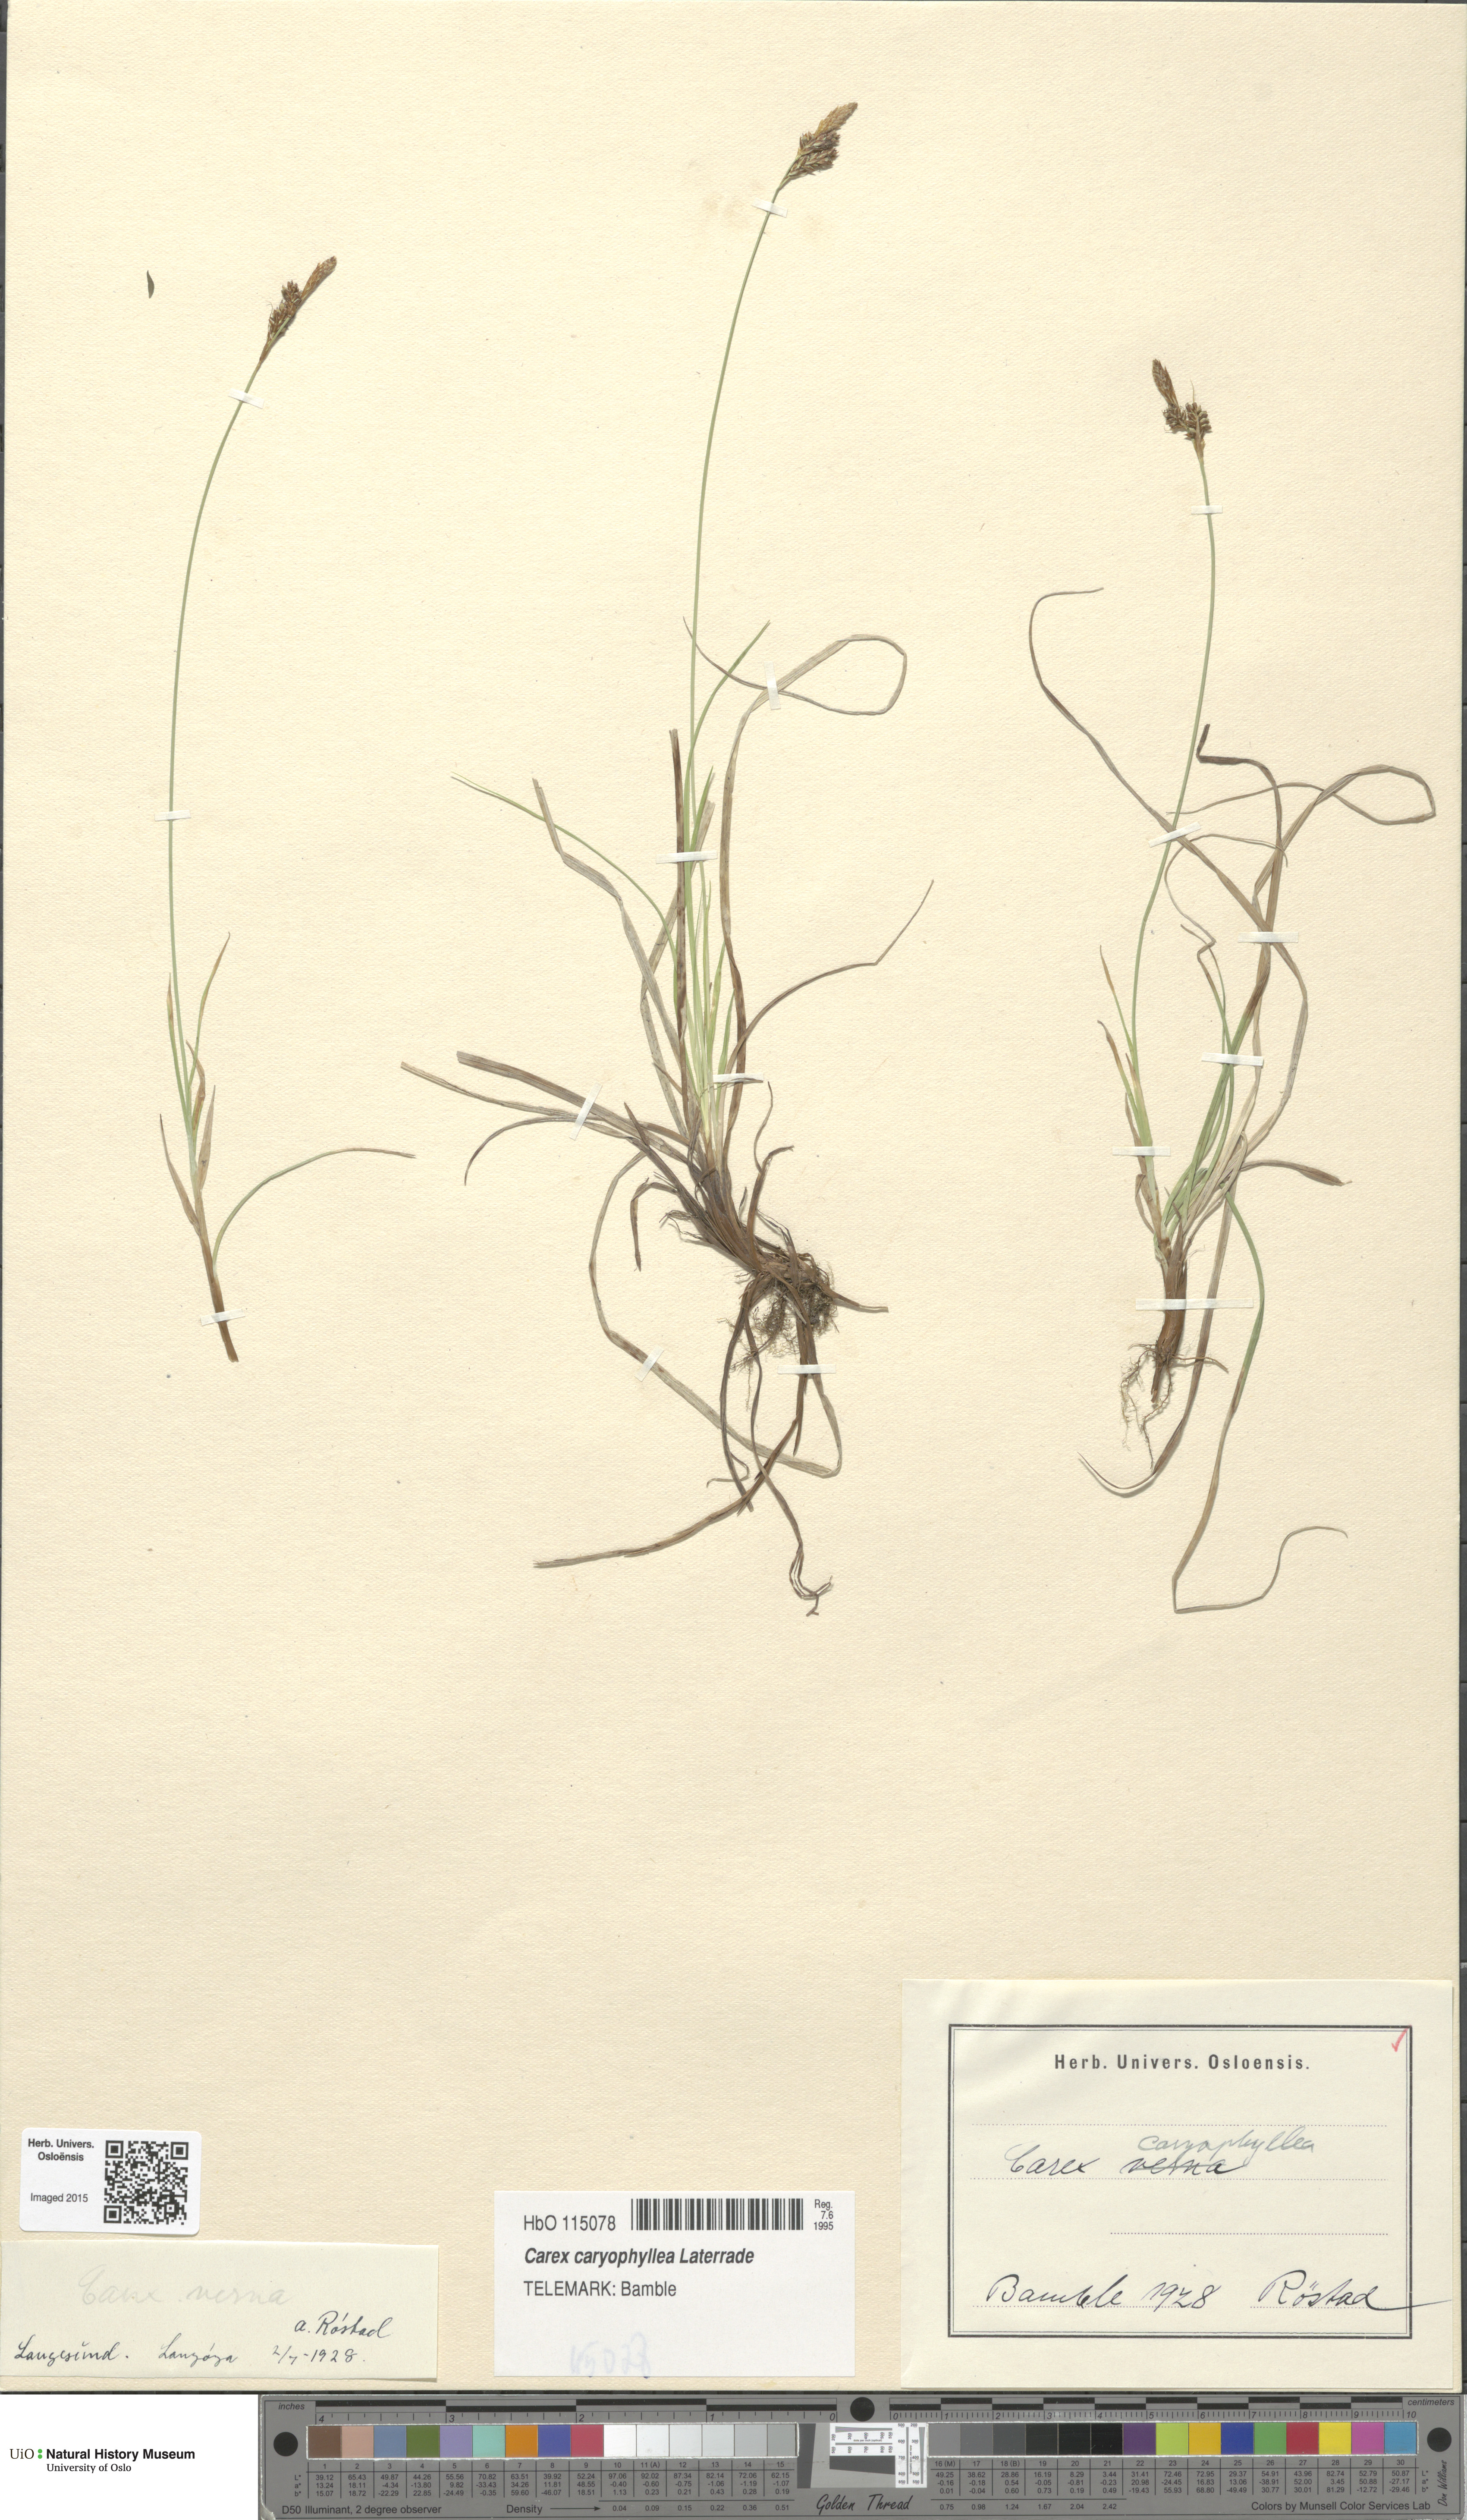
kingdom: Plantae
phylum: Tracheophyta
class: Liliopsida
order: Poales
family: Cyperaceae
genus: Carex
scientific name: Carex caryophyllea
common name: Spring sedge
